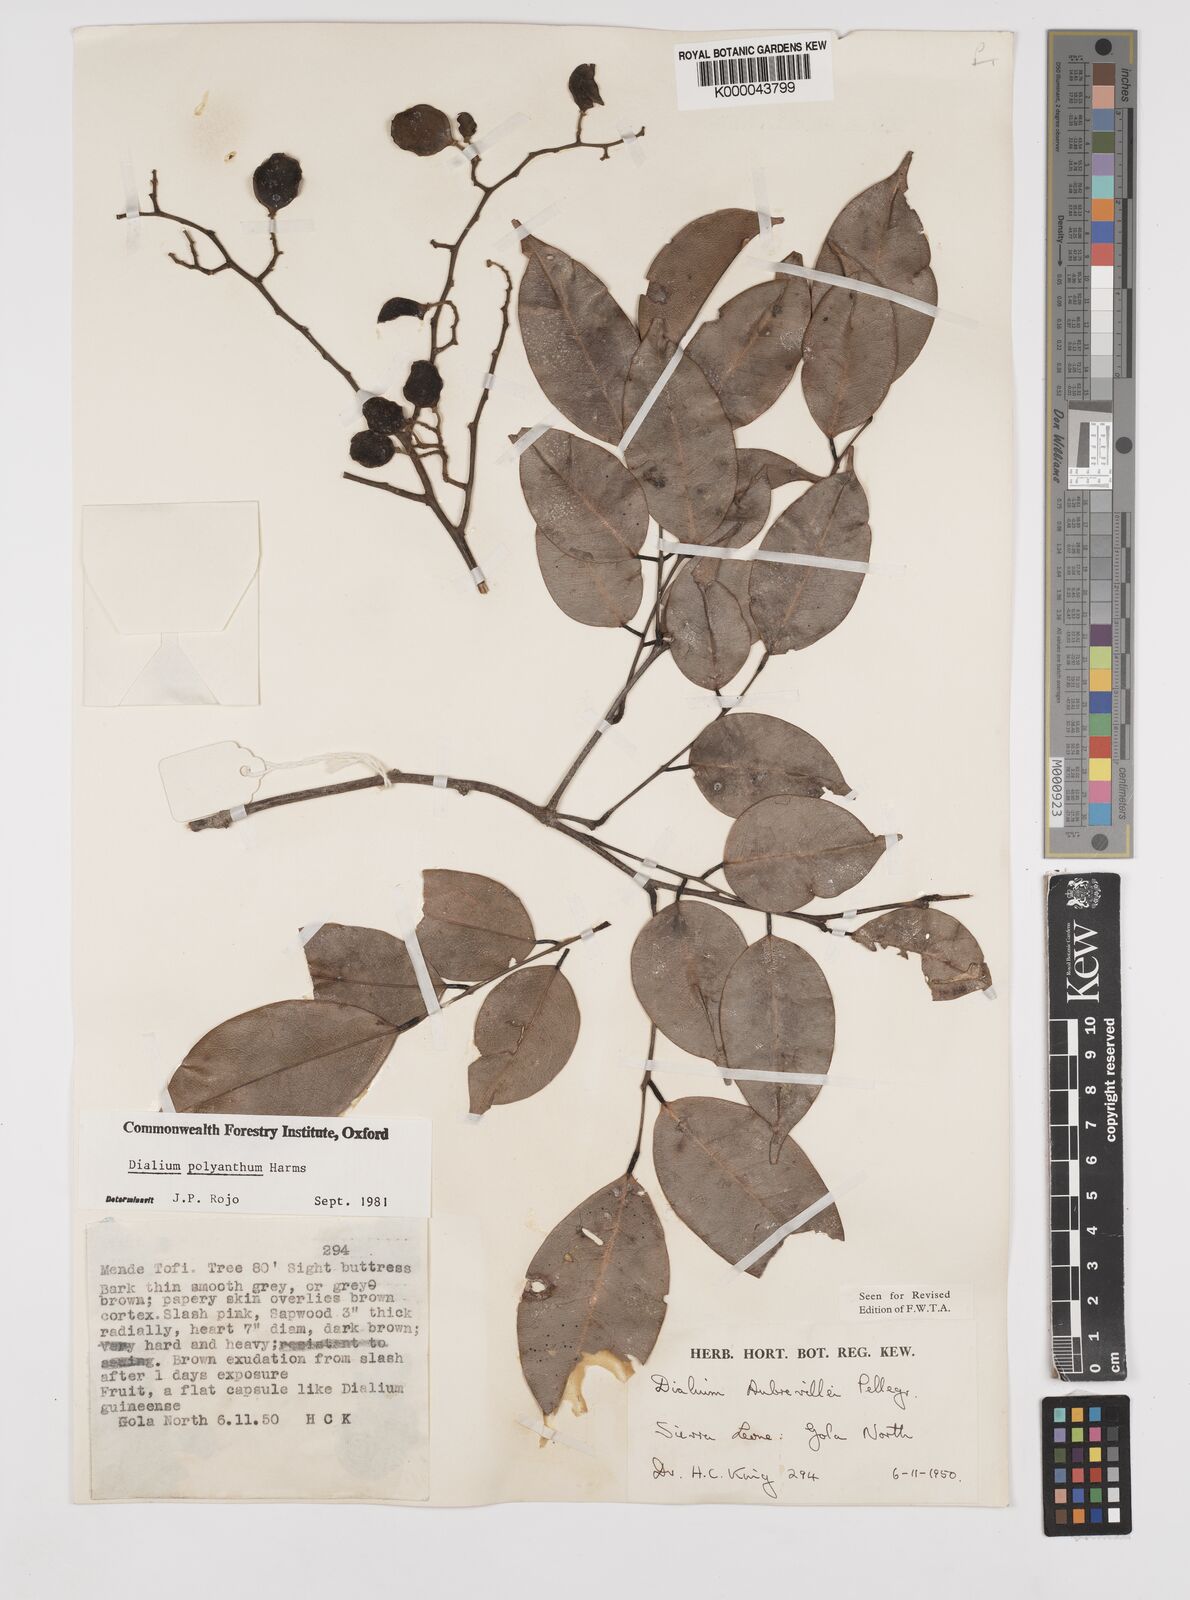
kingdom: Plantae
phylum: Tracheophyta
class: Magnoliopsida
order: Fabales
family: Fabaceae
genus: Dialium
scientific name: Dialium polyanthum
